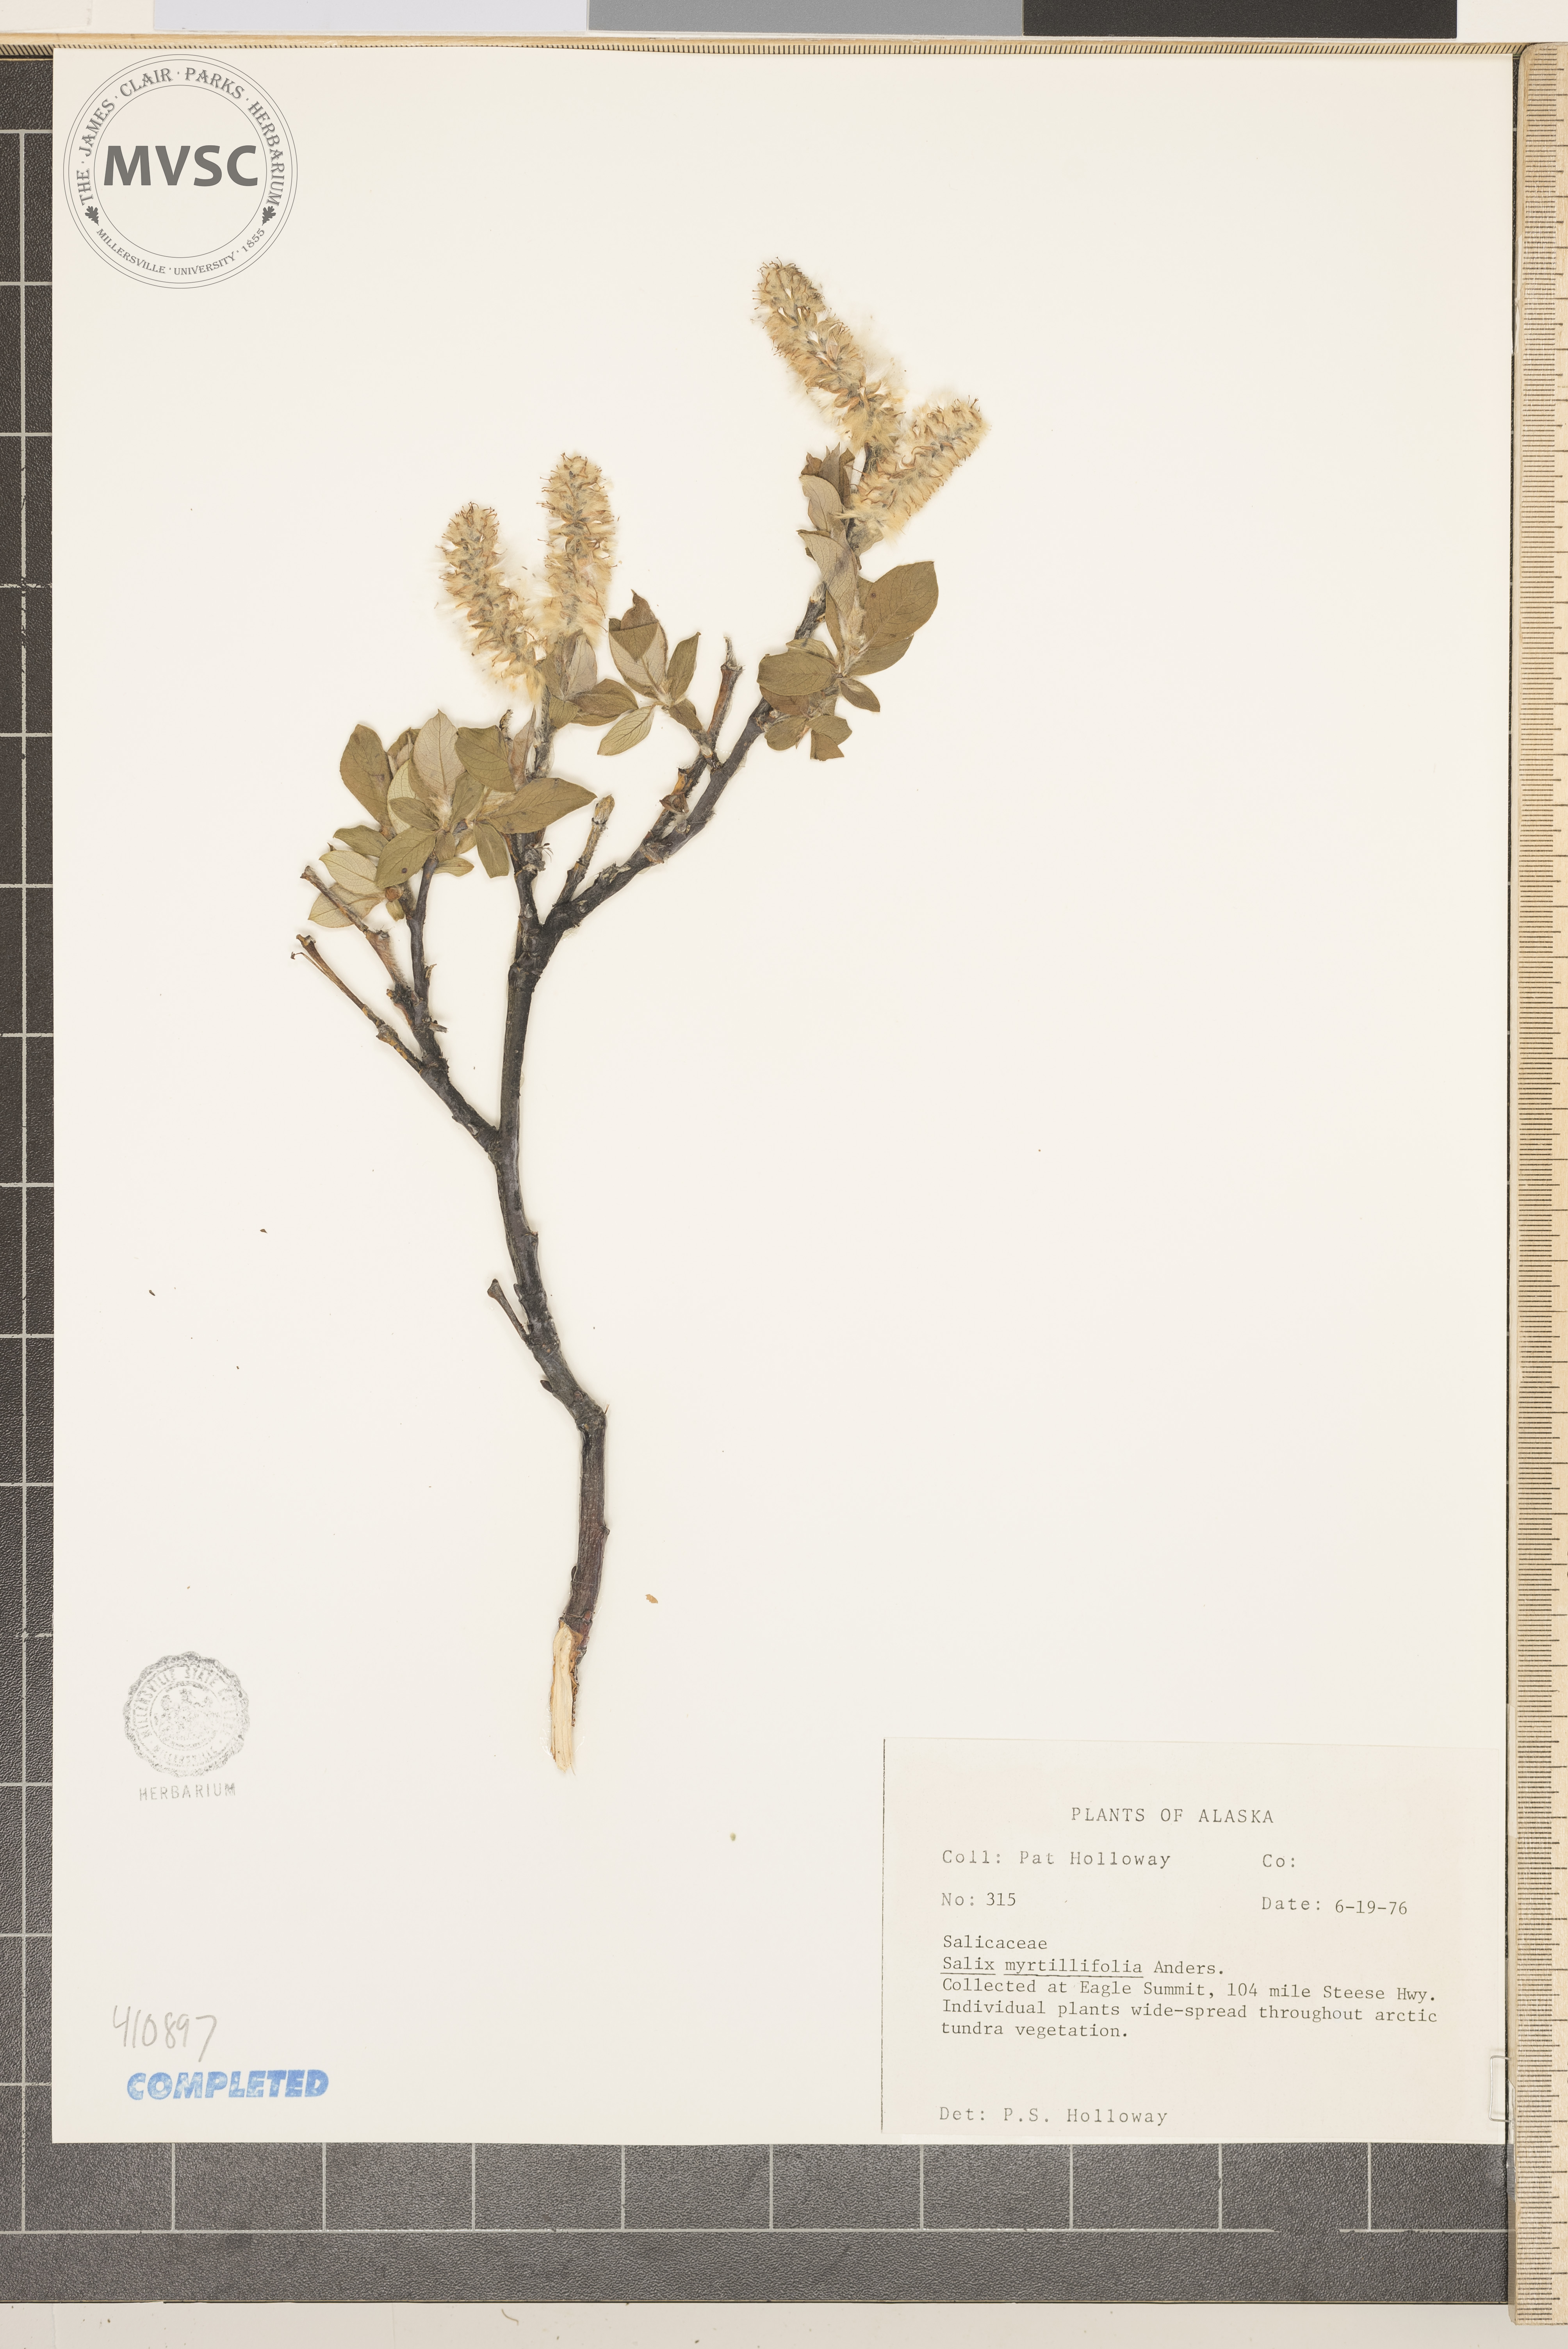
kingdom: Plantae
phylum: Tracheophyta
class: Magnoliopsida
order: Malpighiales
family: Salicaceae
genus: Salix
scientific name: Salix myrtillifolia
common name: Bilberry willow
